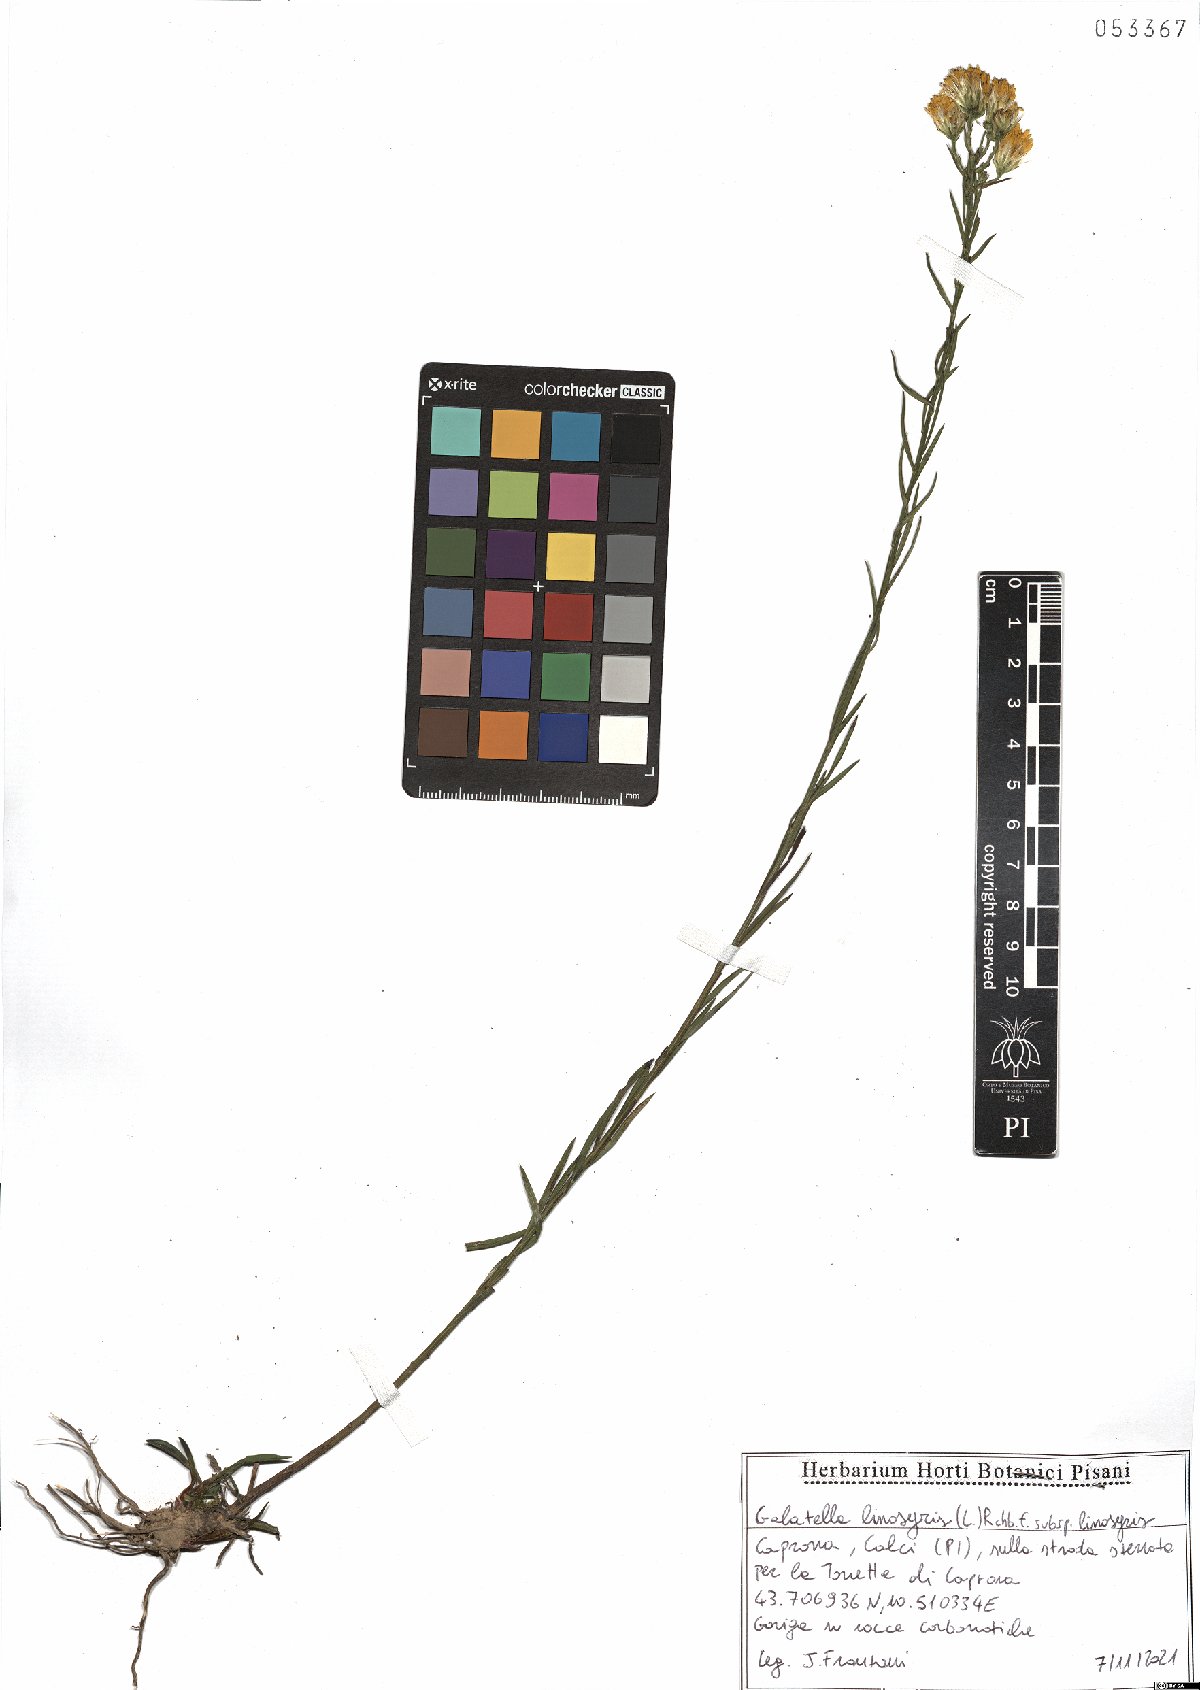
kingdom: Plantae
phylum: Tracheophyta
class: Magnoliopsida
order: Asterales
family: Asteraceae
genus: Galatella
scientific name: Galatella linosyris
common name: Goldilocks aster
